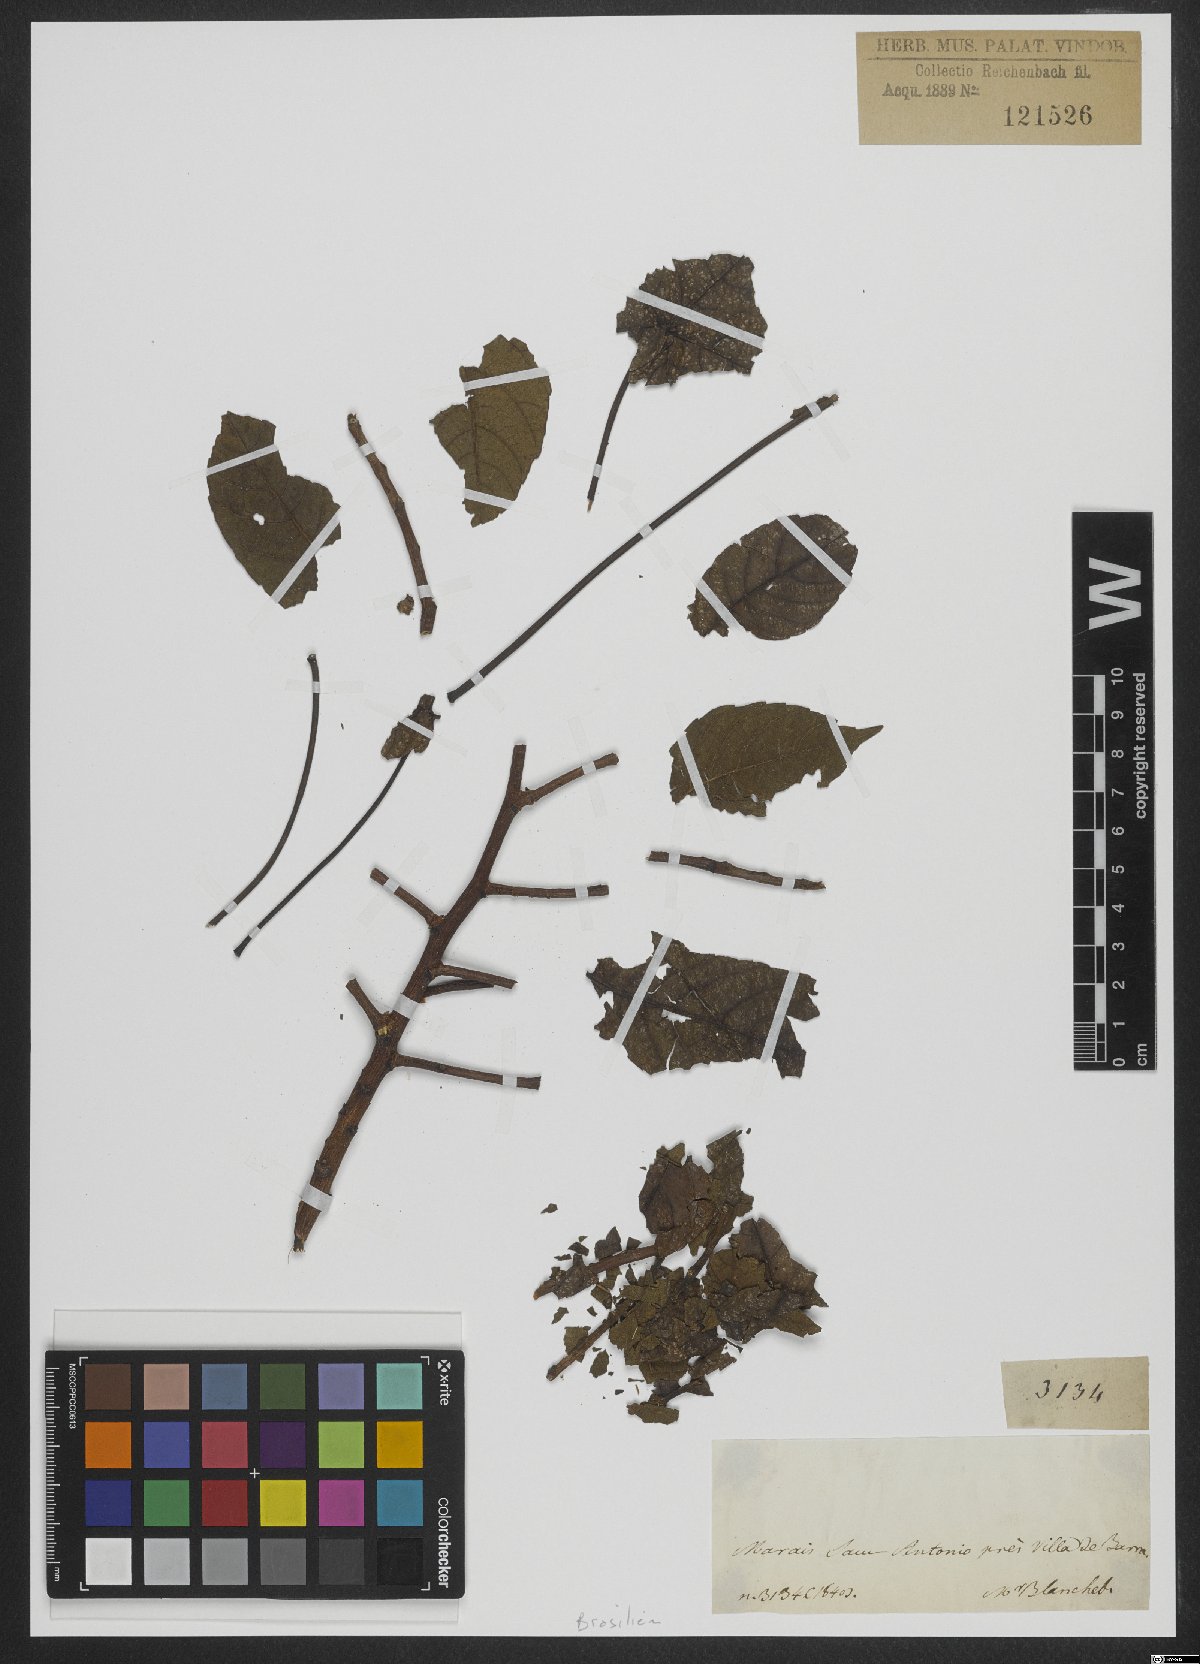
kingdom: Plantae
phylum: Tracheophyta
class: Magnoliopsida
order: Malvales
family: Cochlospermaceae
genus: Cochlospermum
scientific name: Cochlospermum regium
